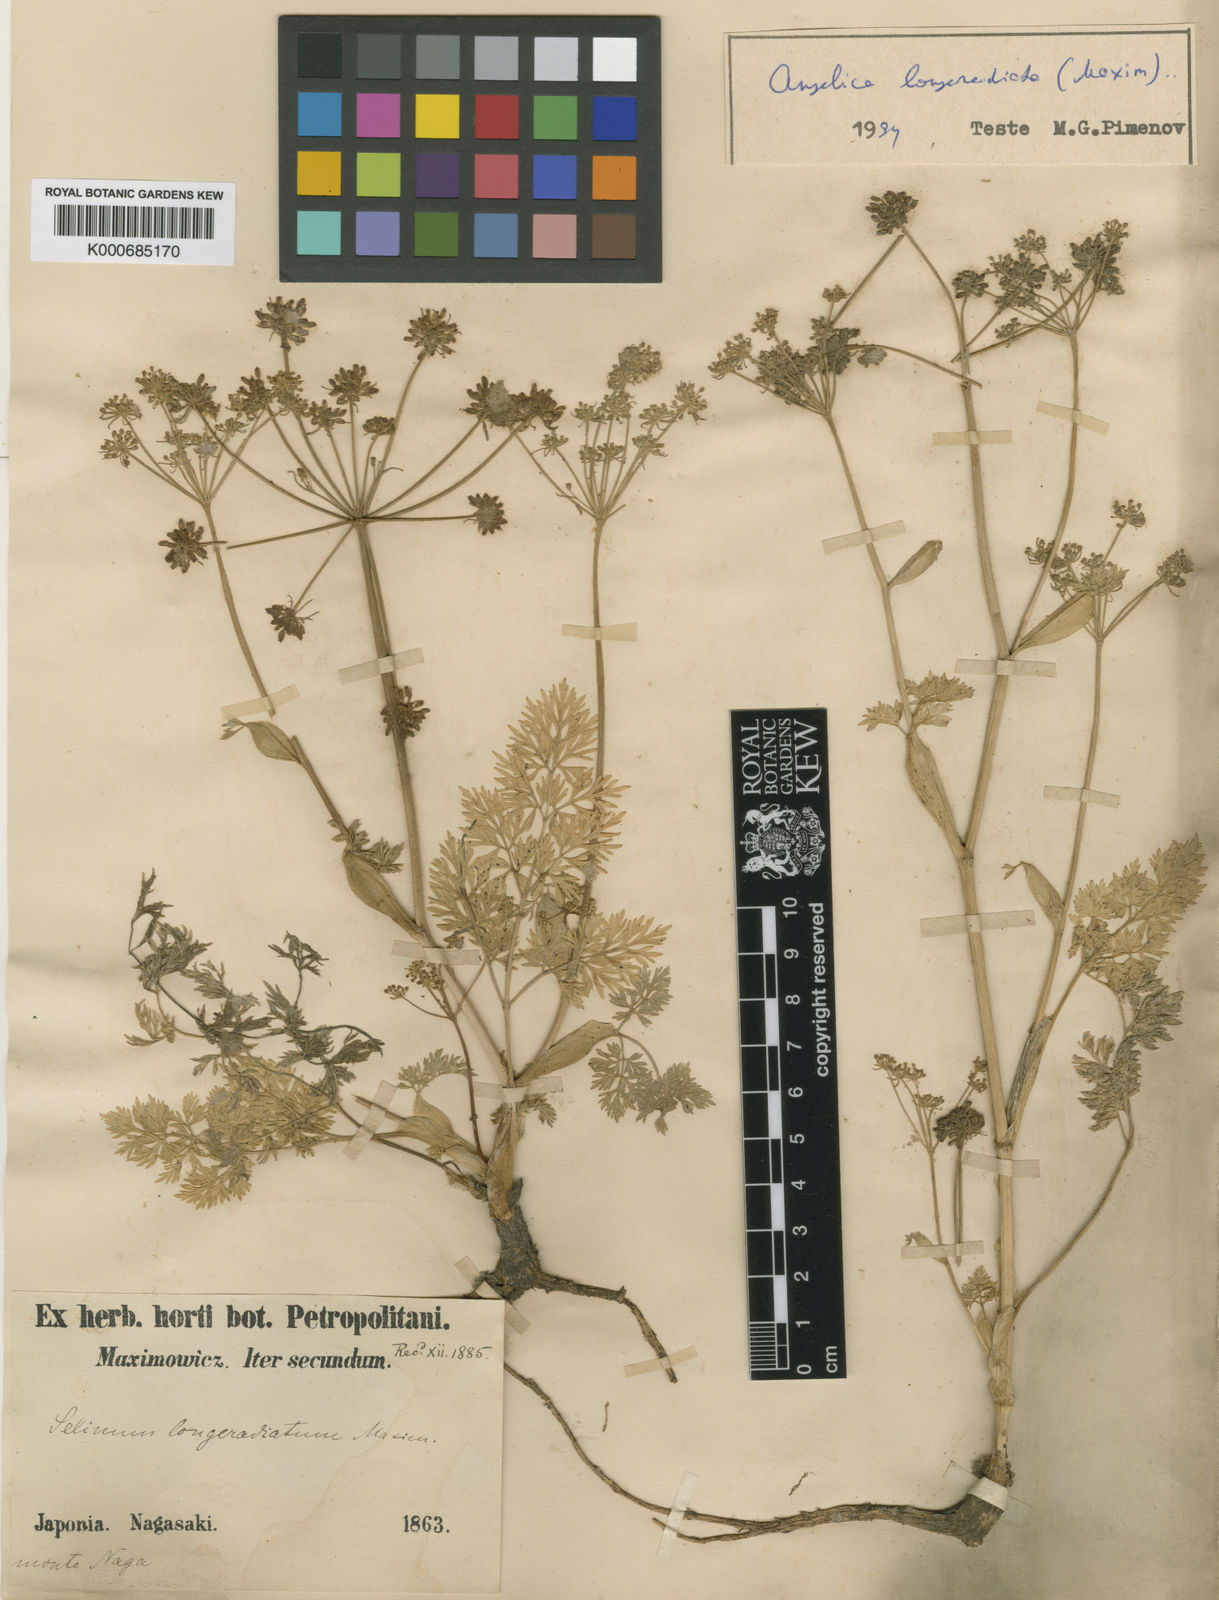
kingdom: Plantae
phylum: Tracheophyta
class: Magnoliopsida
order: Apiales
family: Apiaceae
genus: Angelica
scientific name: Angelica longeradiata
